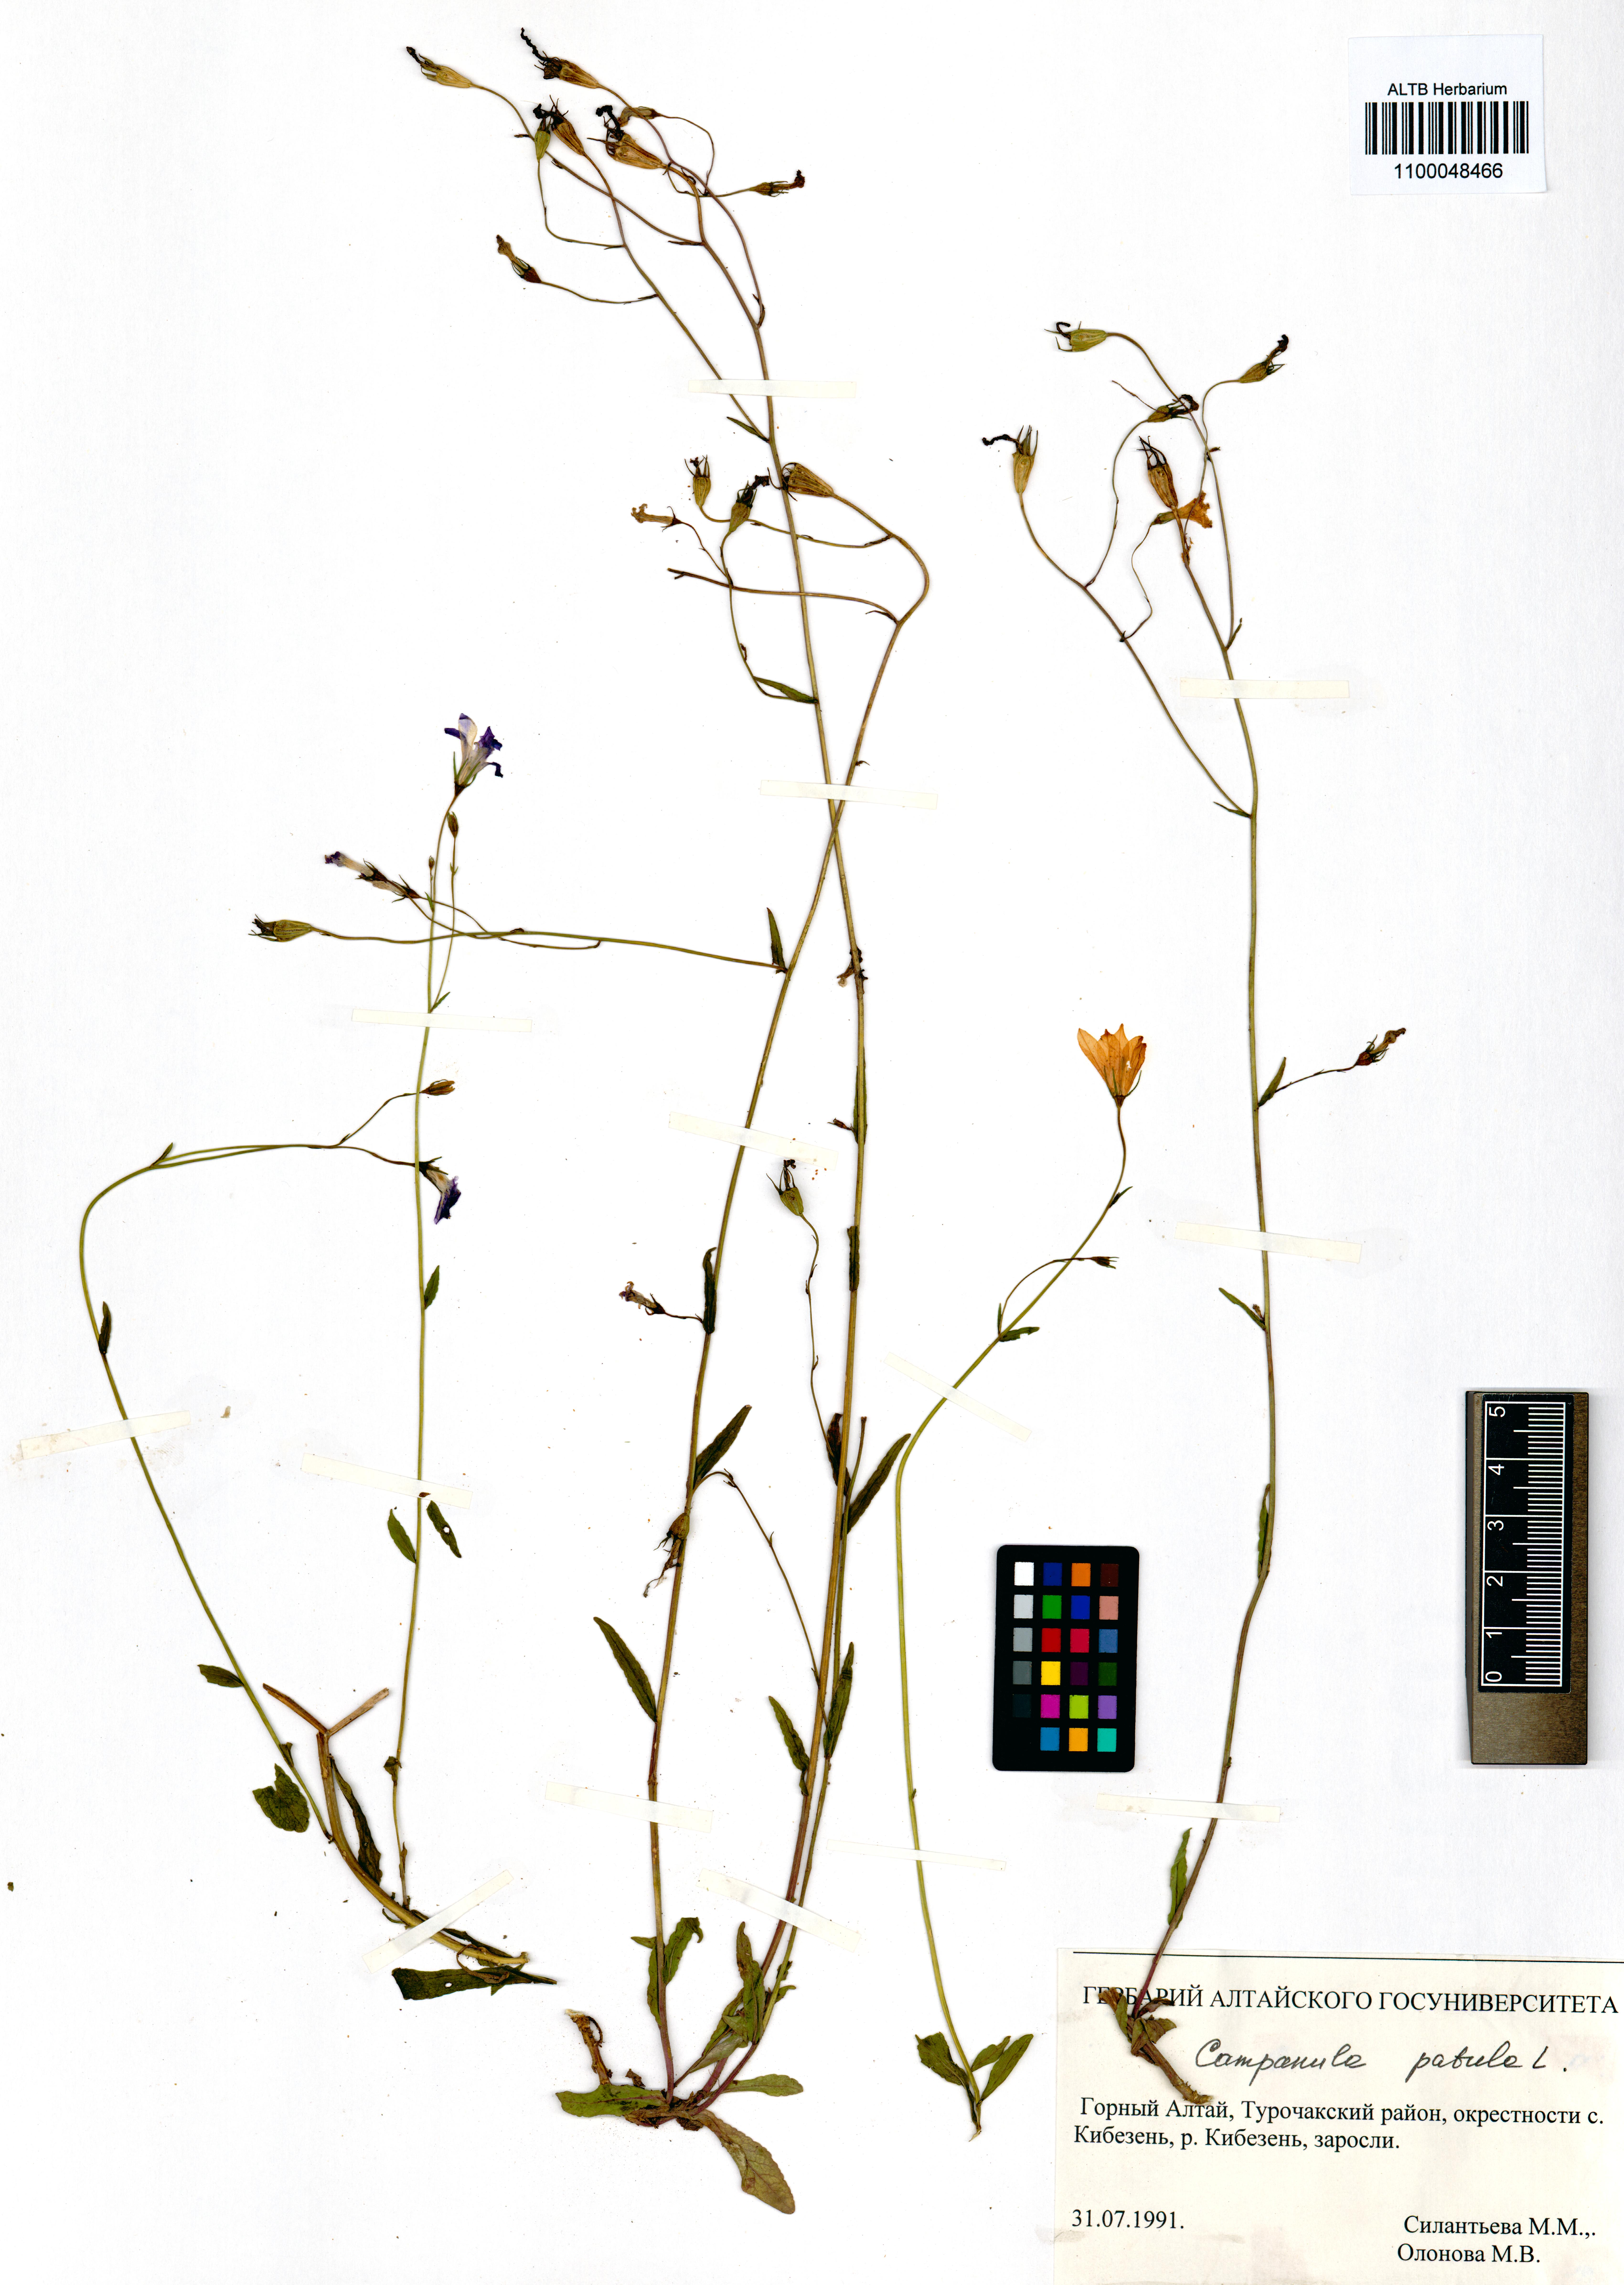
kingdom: Plantae
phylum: Tracheophyta
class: Magnoliopsida
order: Asterales
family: Campanulaceae
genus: Campanula
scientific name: Campanula patula
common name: Spreading bellflower
